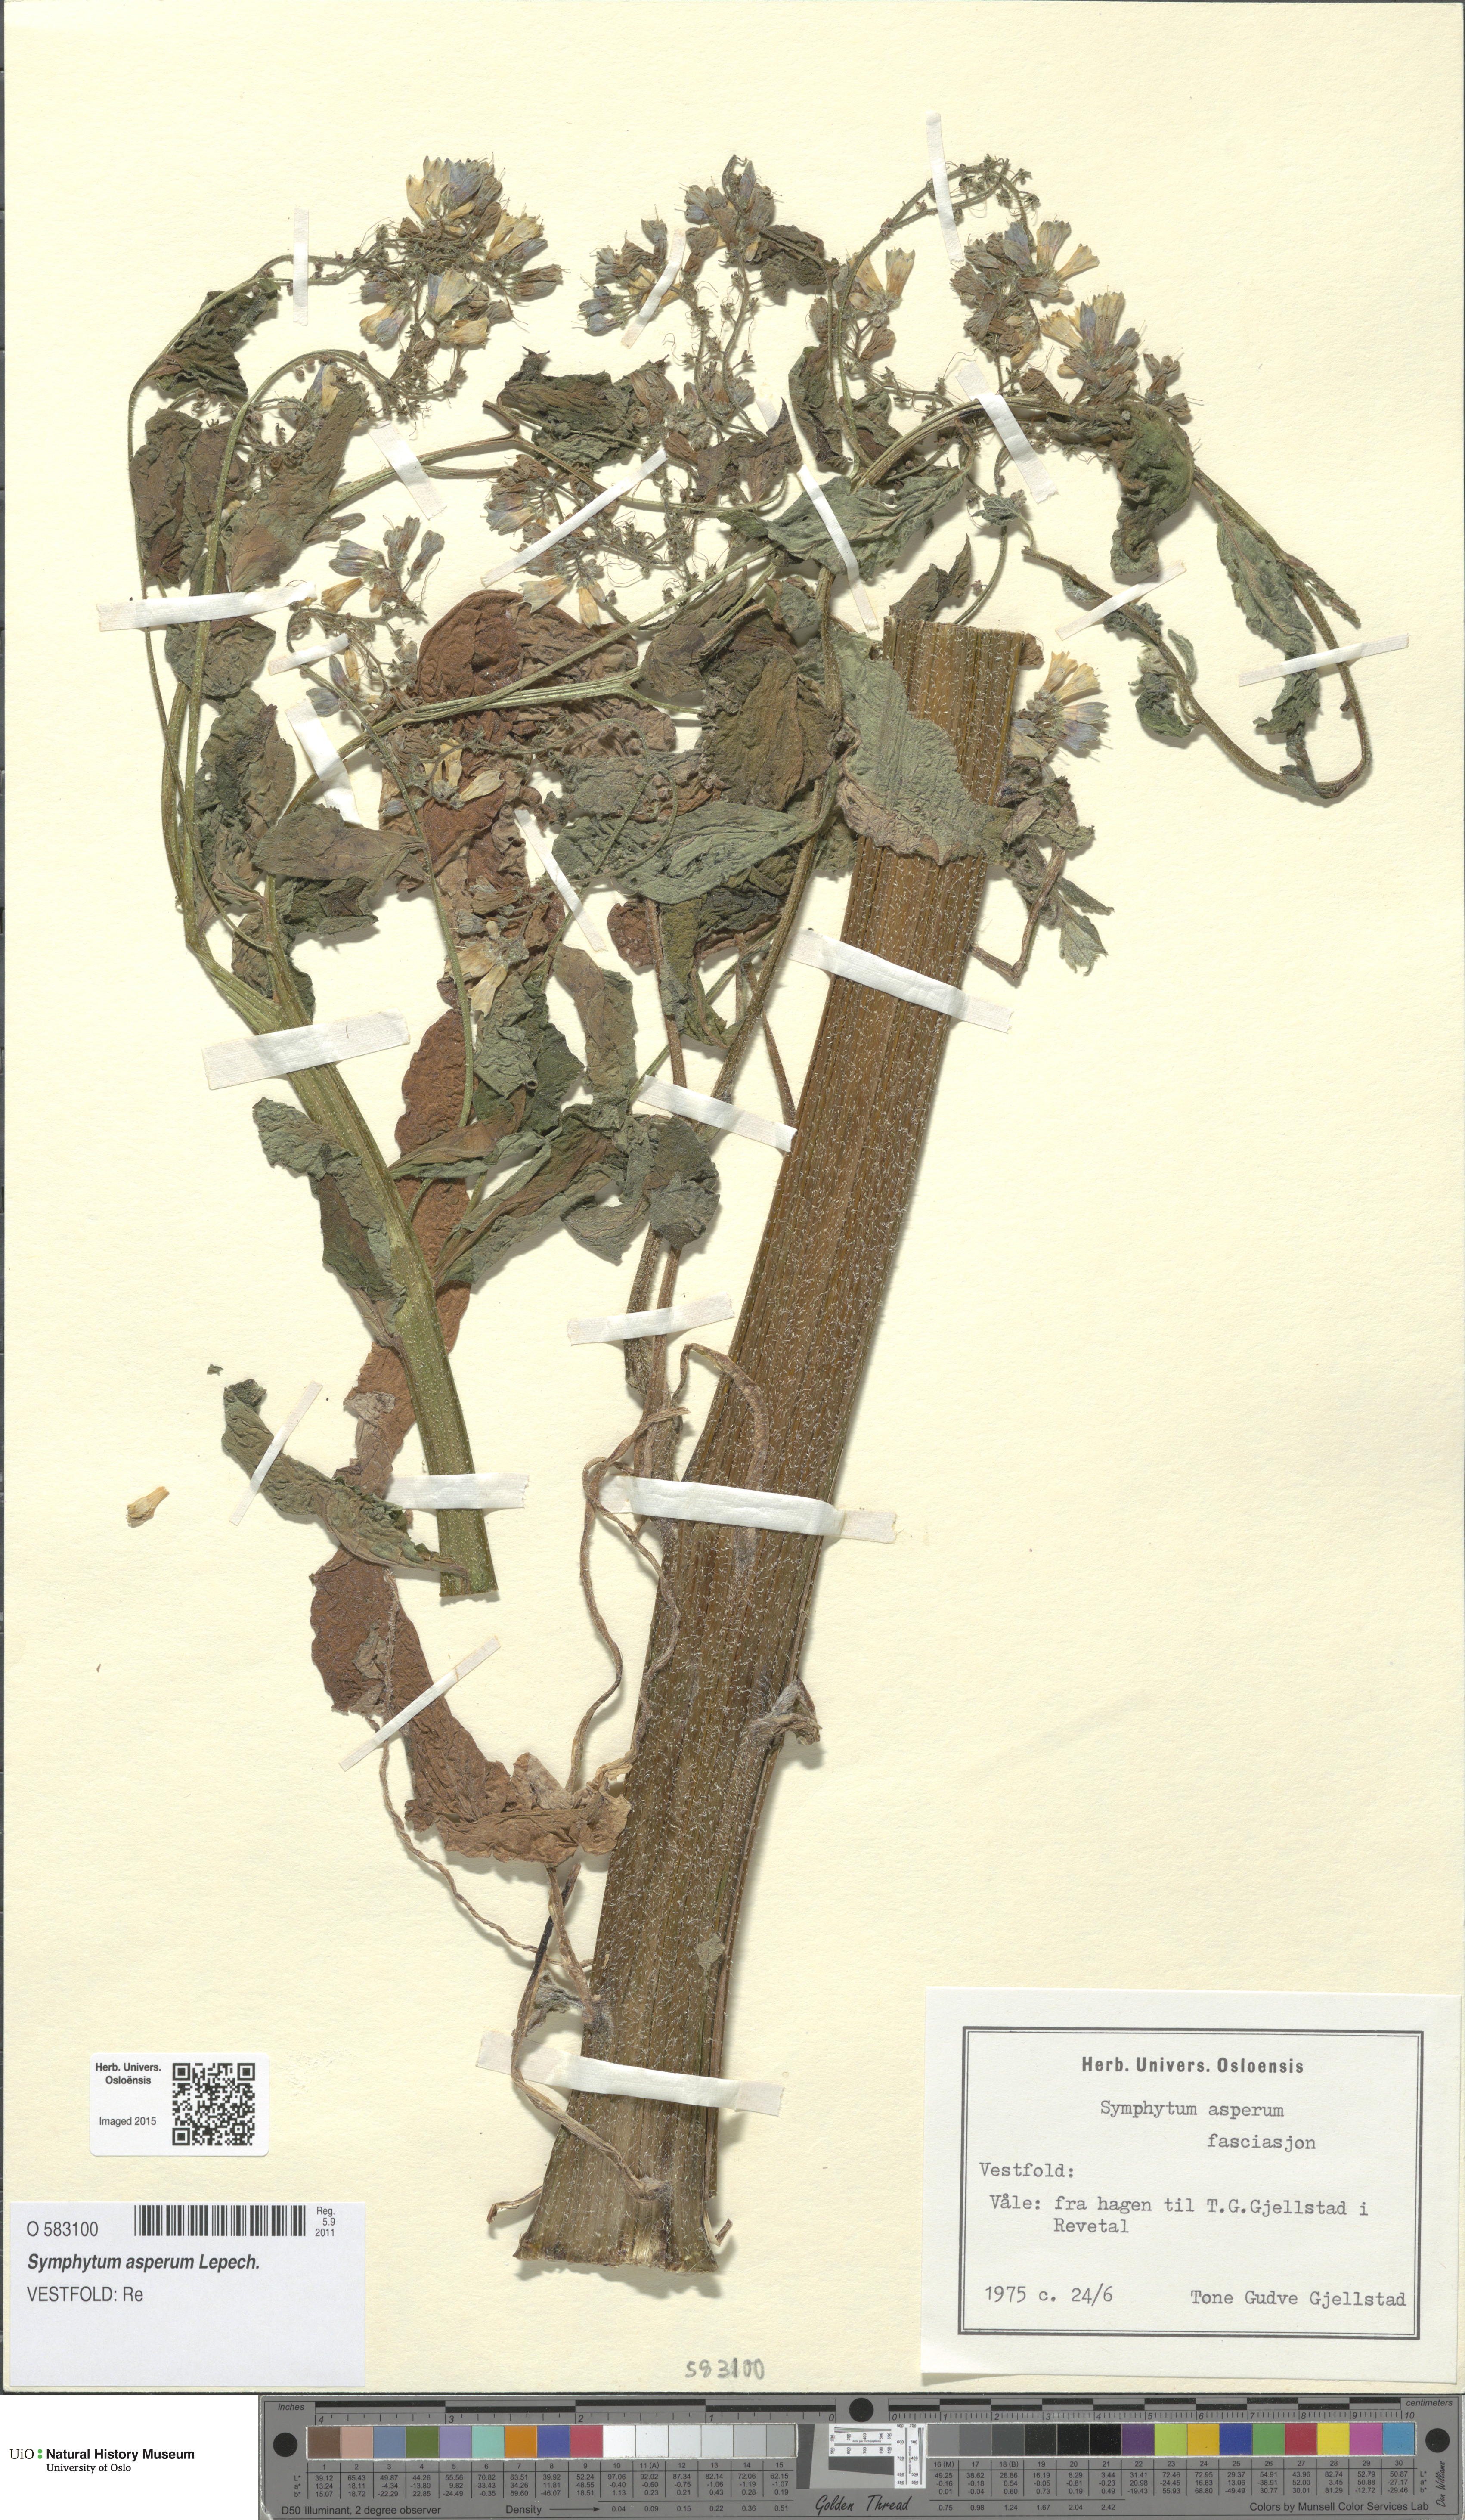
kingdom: Plantae
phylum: Tracheophyta
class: Magnoliopsida
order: Boraginales
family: Boraginaceae
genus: Symphytum
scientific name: Symphytum asperum
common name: Prickly comfrey
